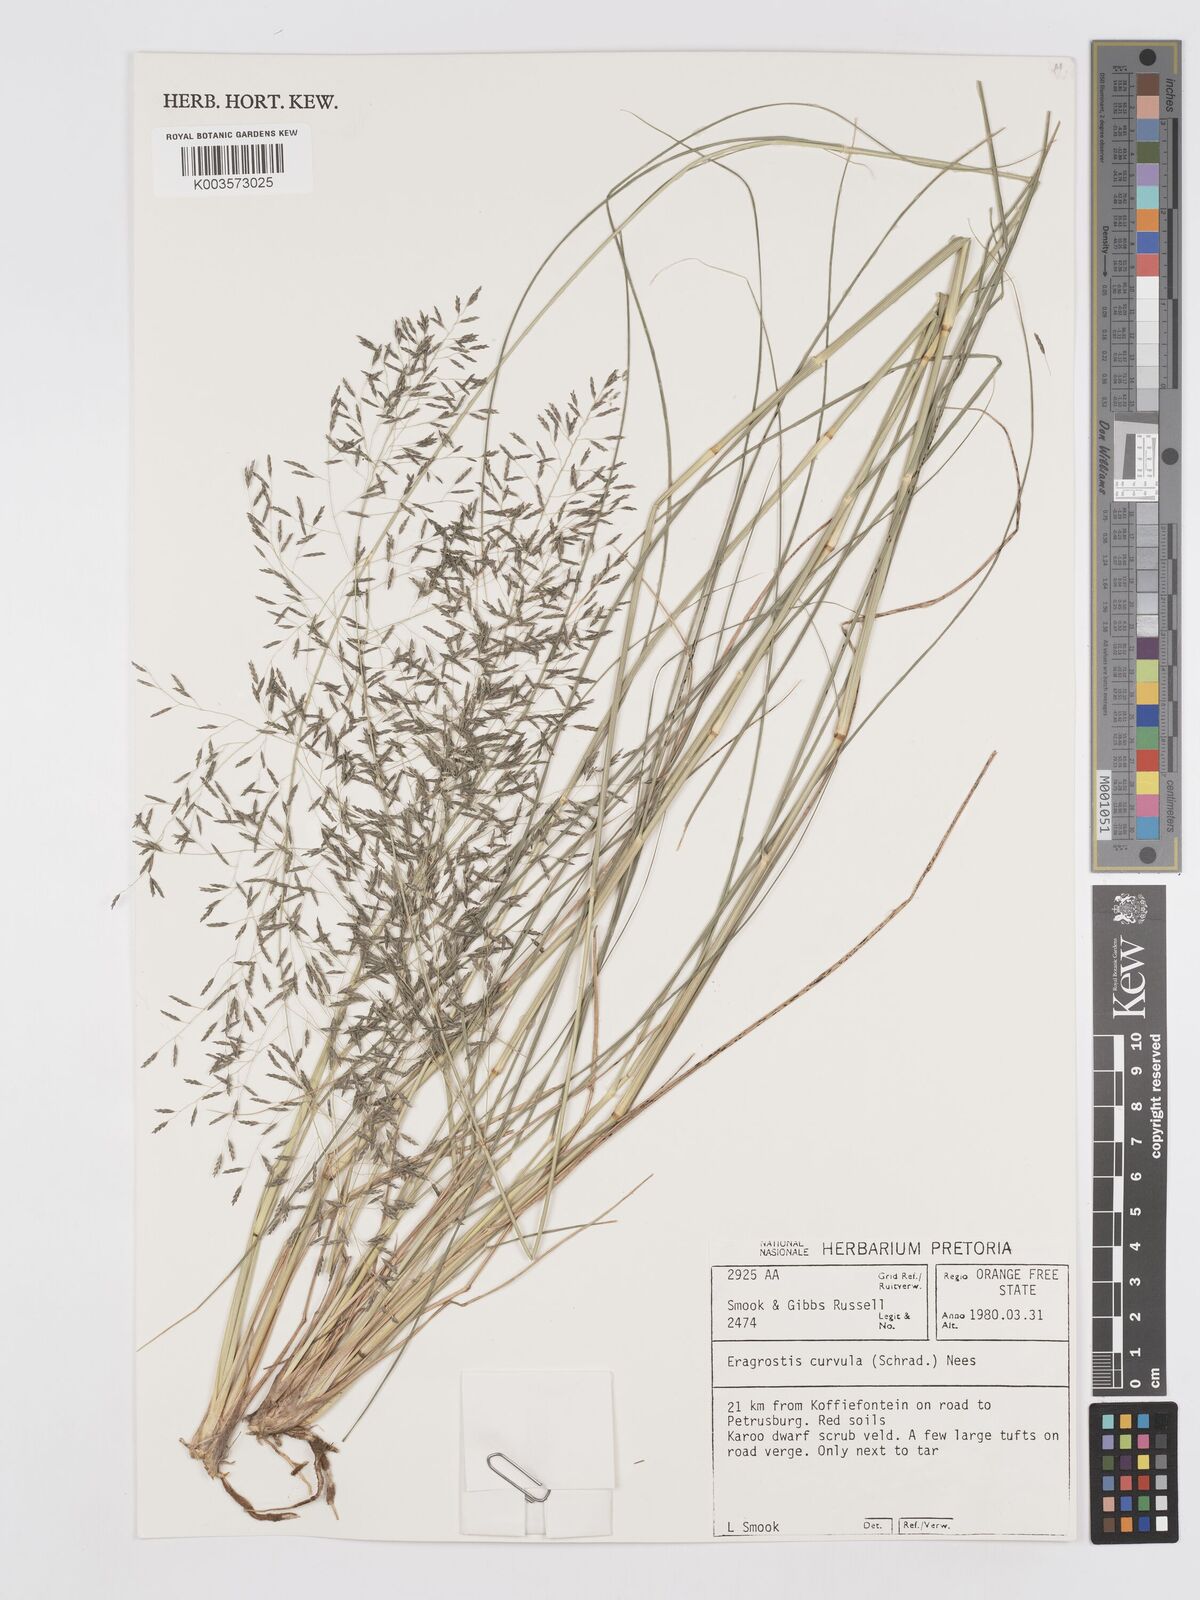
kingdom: Plantae
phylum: Tracheophyta
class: Liliopsida
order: Poales
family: Poaceae
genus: Eragrostis
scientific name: Eragrostis curvula
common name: African love-grass
